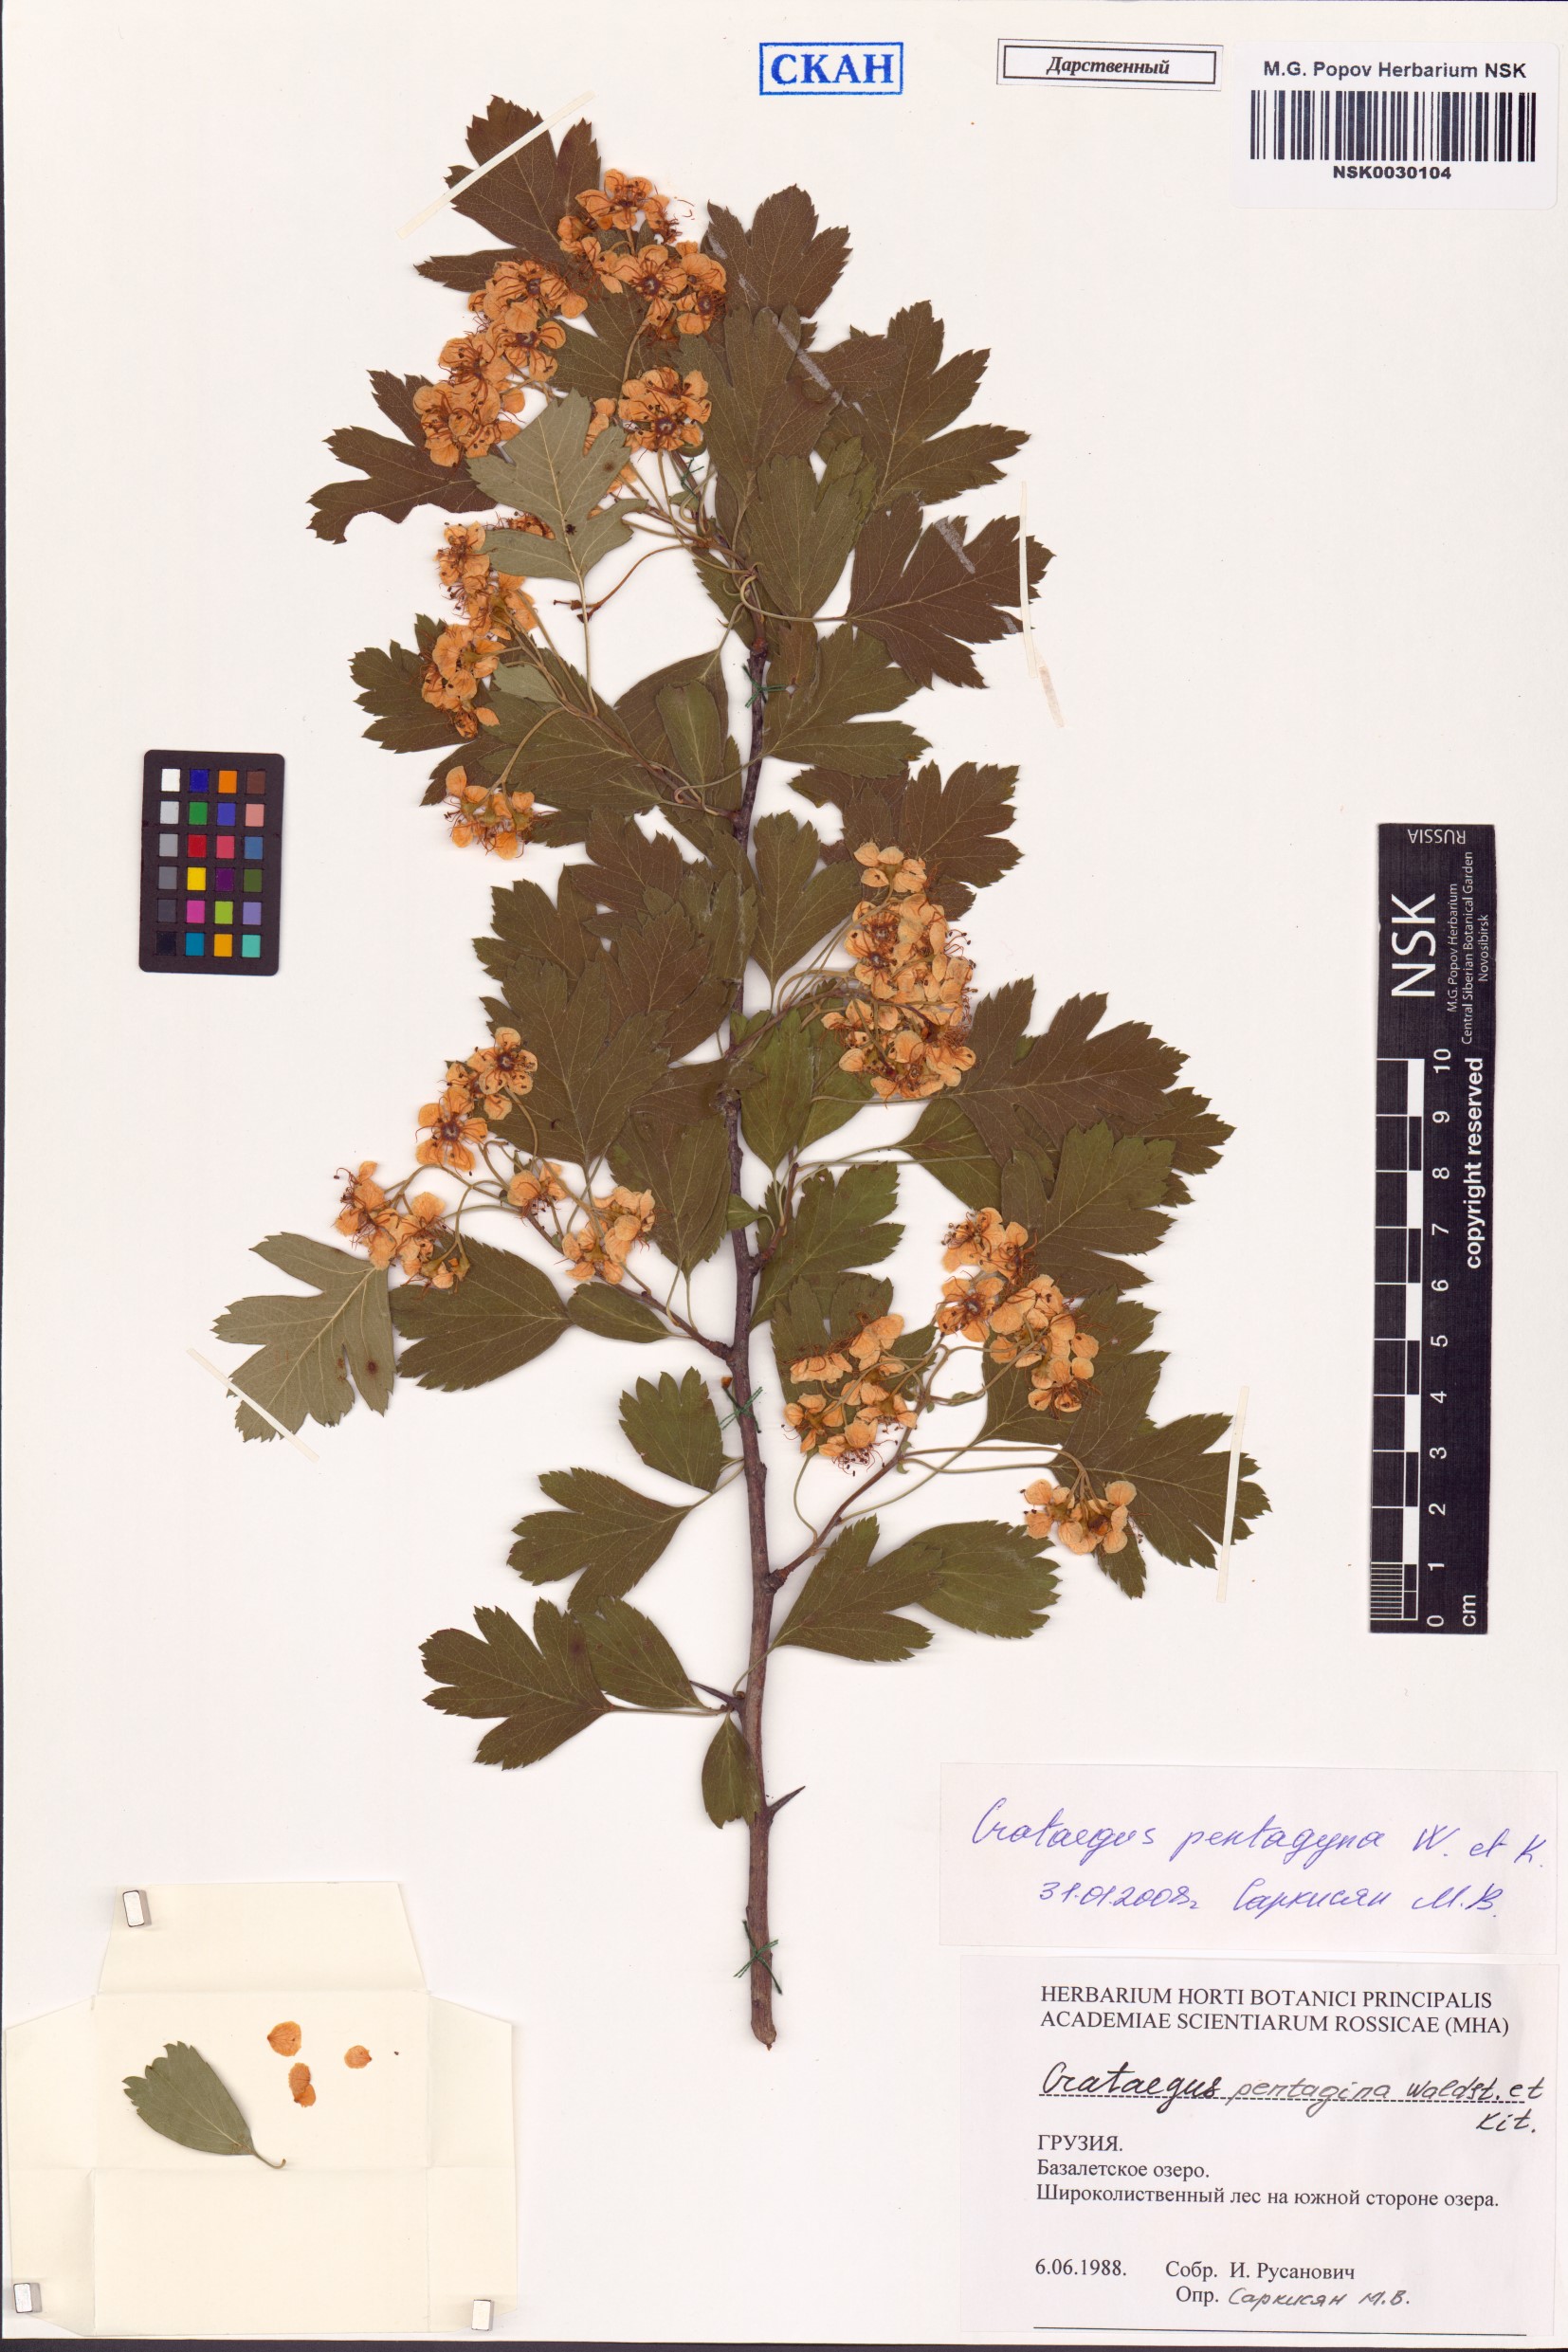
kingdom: Plantae
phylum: Tracheophyta
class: Magnoliopsida
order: Rosales
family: Rosaceae
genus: Crataegus
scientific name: Crataegus pentagyna
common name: Small-flowered black hawthorn
